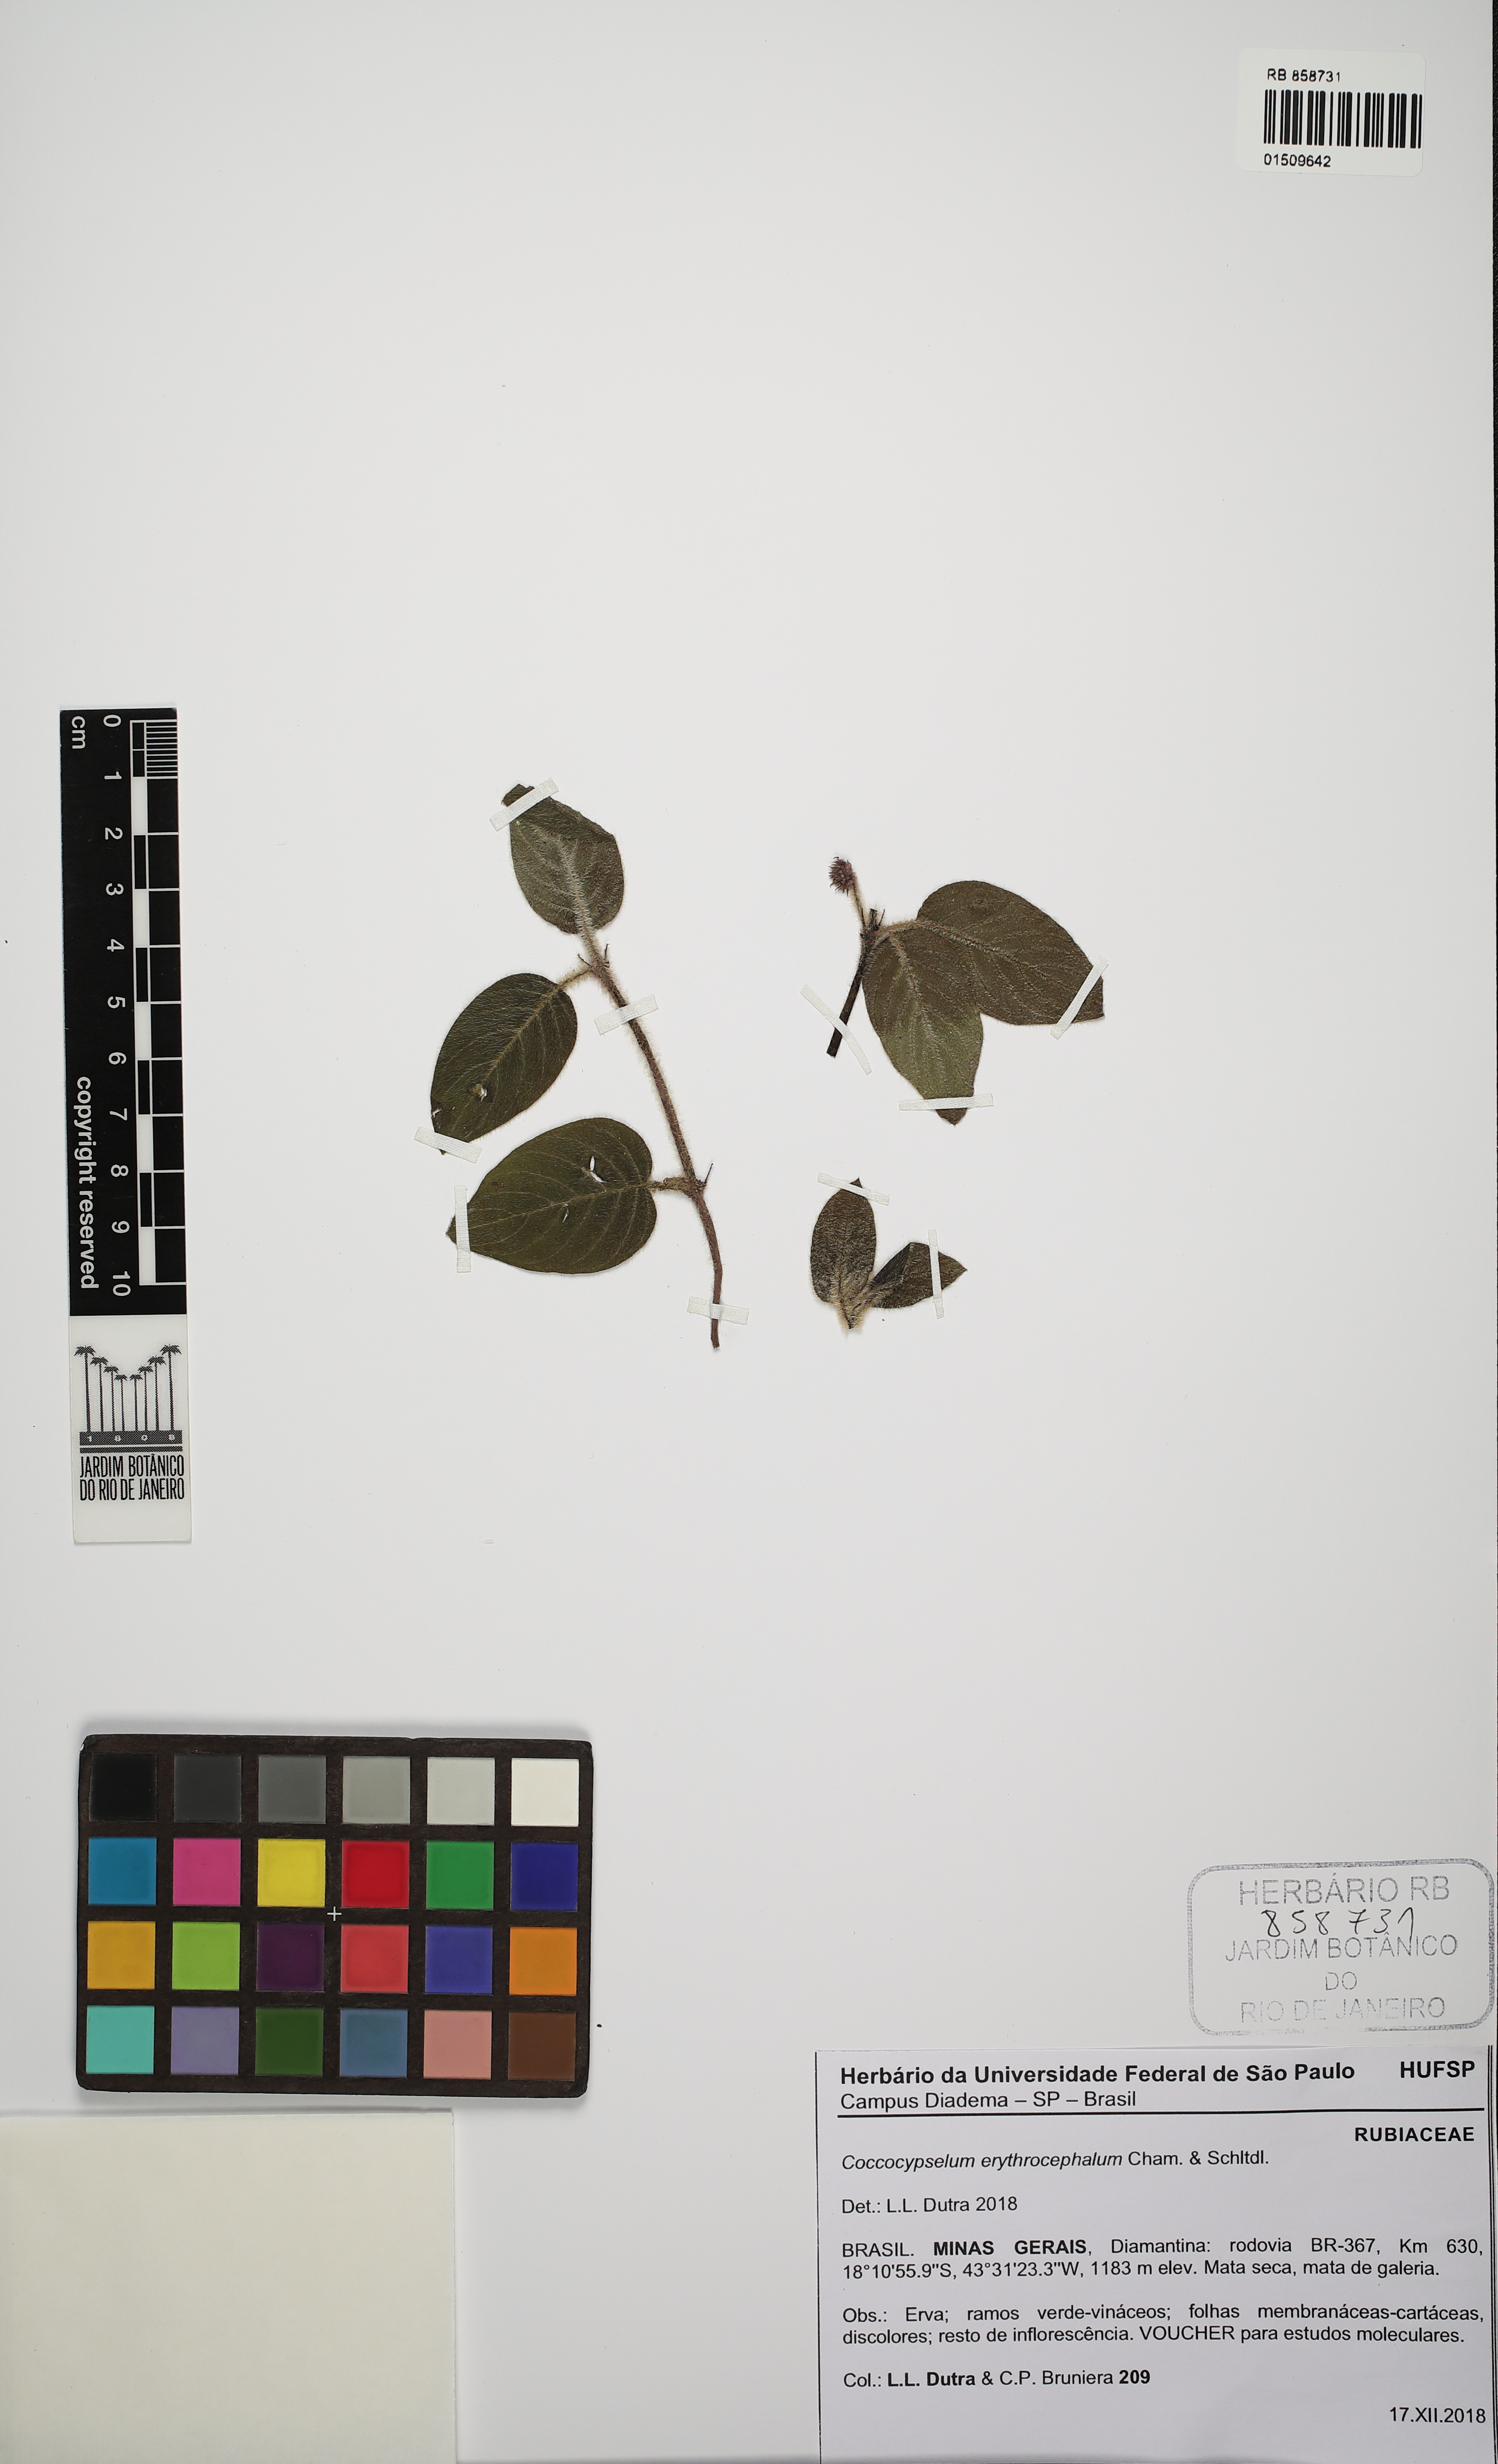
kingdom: Plantae
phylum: Tracheophyta
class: Magnoliopsida
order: Gentianales
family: Rubiaceae
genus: Coccocypselum
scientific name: Coccocypselum erythrocephalum
